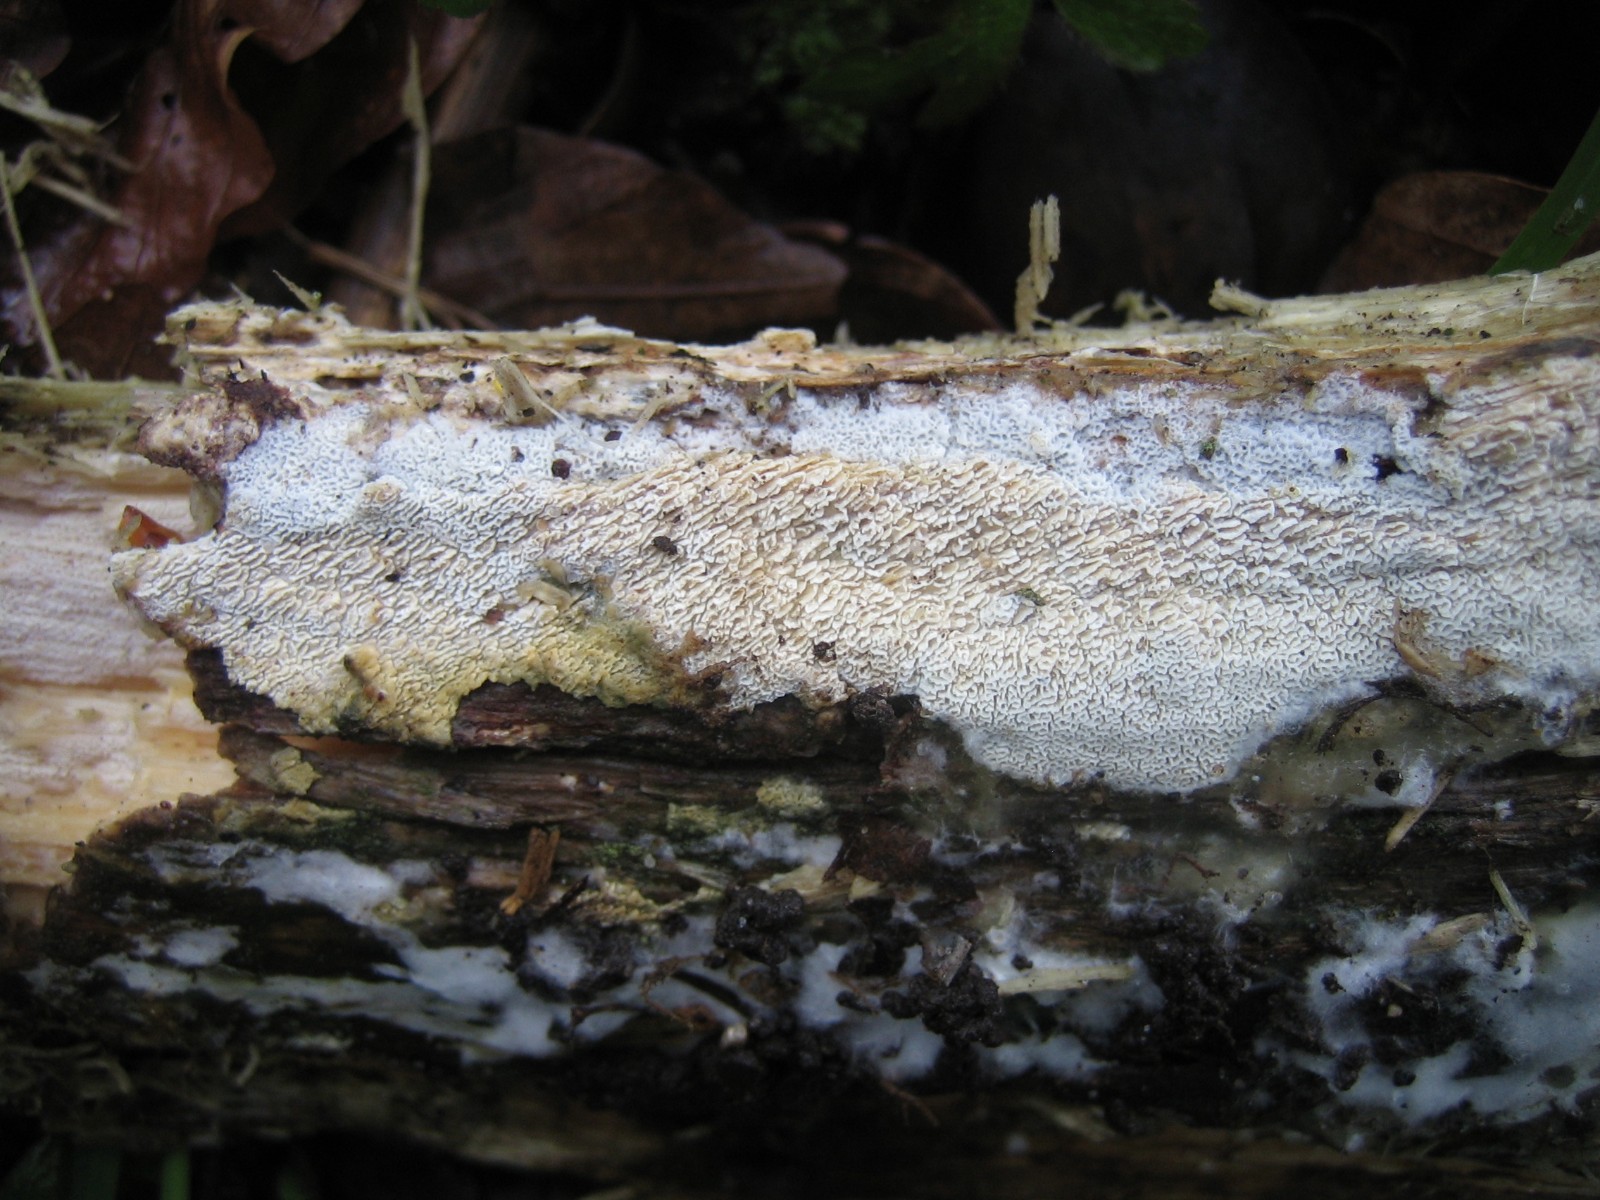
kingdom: Fungi
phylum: Basidiomycota
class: Agaricomycetes
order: Hymenochaetales
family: Schizoporaceae
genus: Xylodon
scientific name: Xylodon subtropicus
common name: labyrint-tandsvamp
